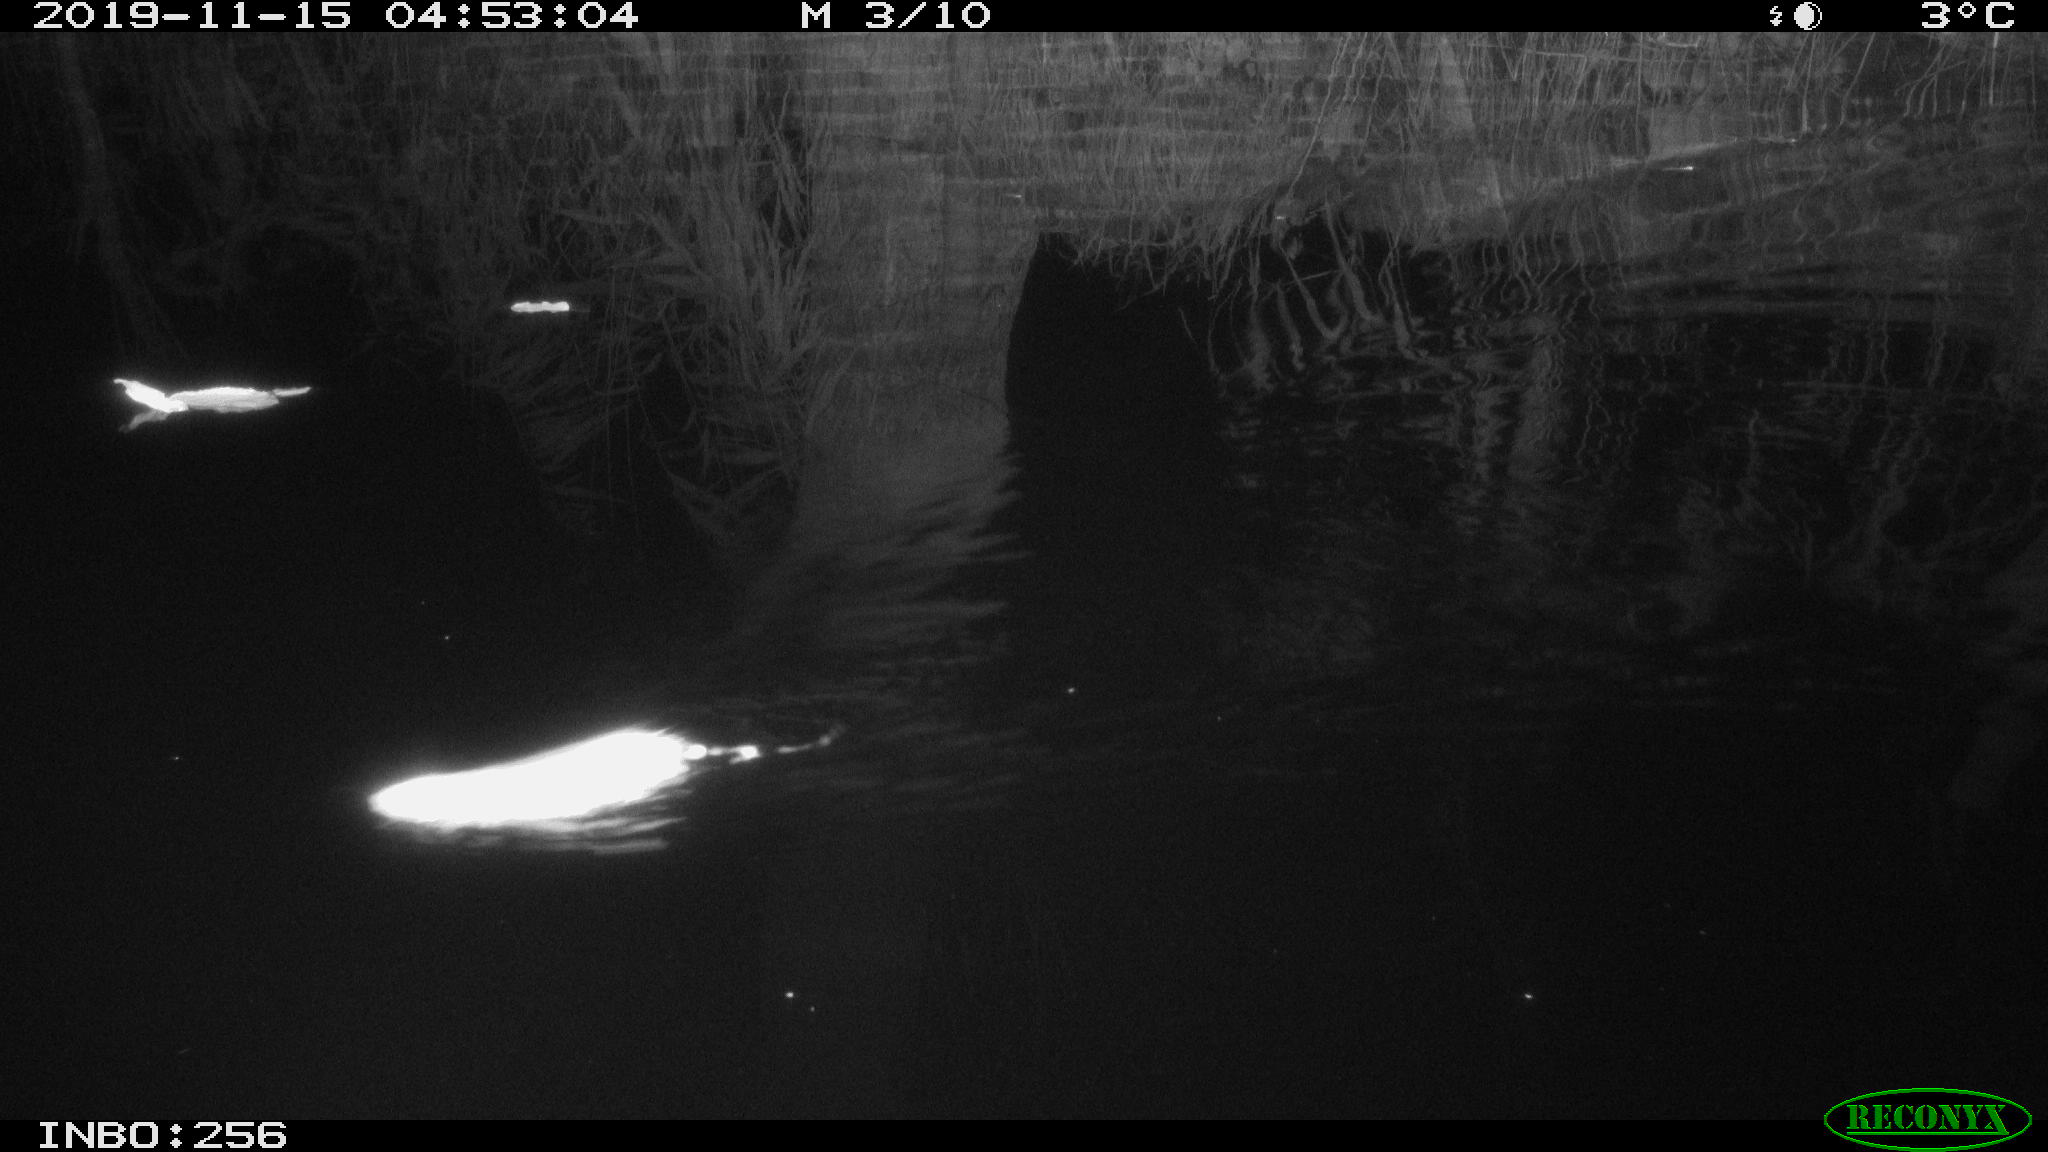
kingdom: Animalia
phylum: Chordata
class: Mammalia
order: Rodentia
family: Muridae
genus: Rattus
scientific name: Rattus norvegicus
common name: Brown rat
